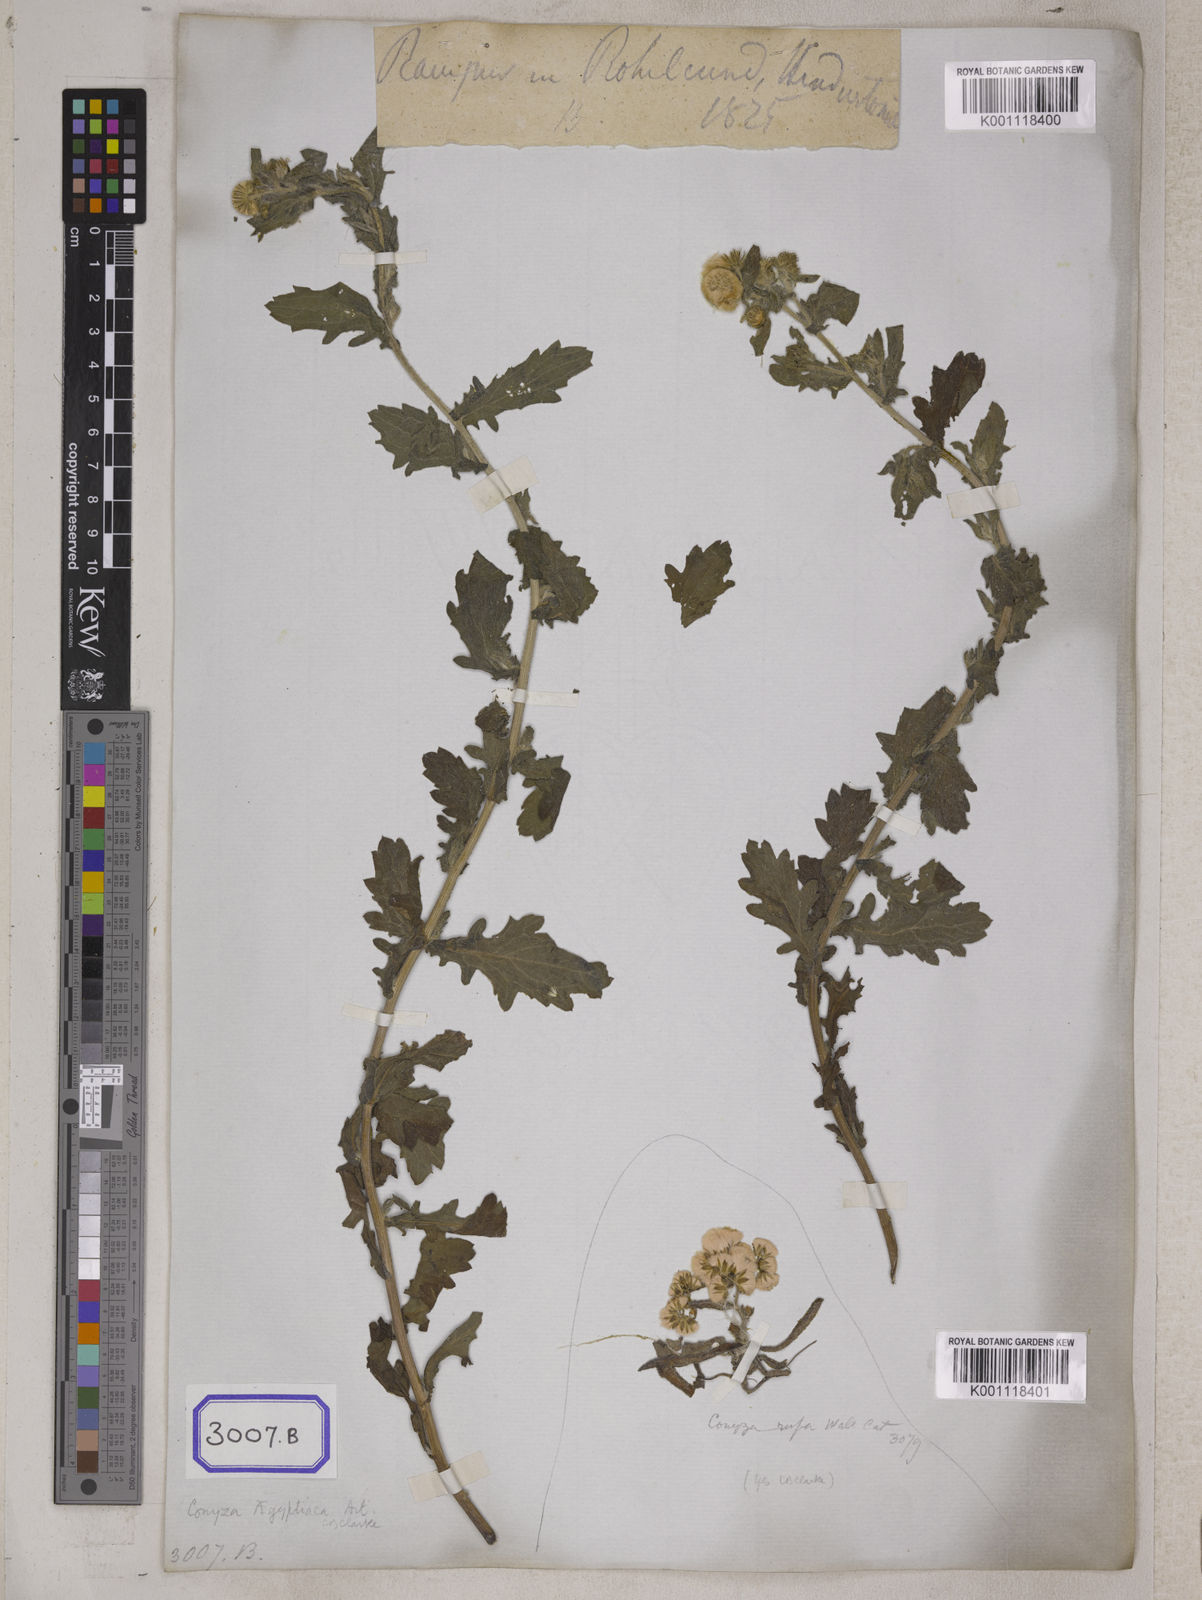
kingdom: Plantae
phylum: Tracheophyta
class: Magnoliopsida
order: Asterales
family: Asteraceae
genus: Conyza
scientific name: Conyza
